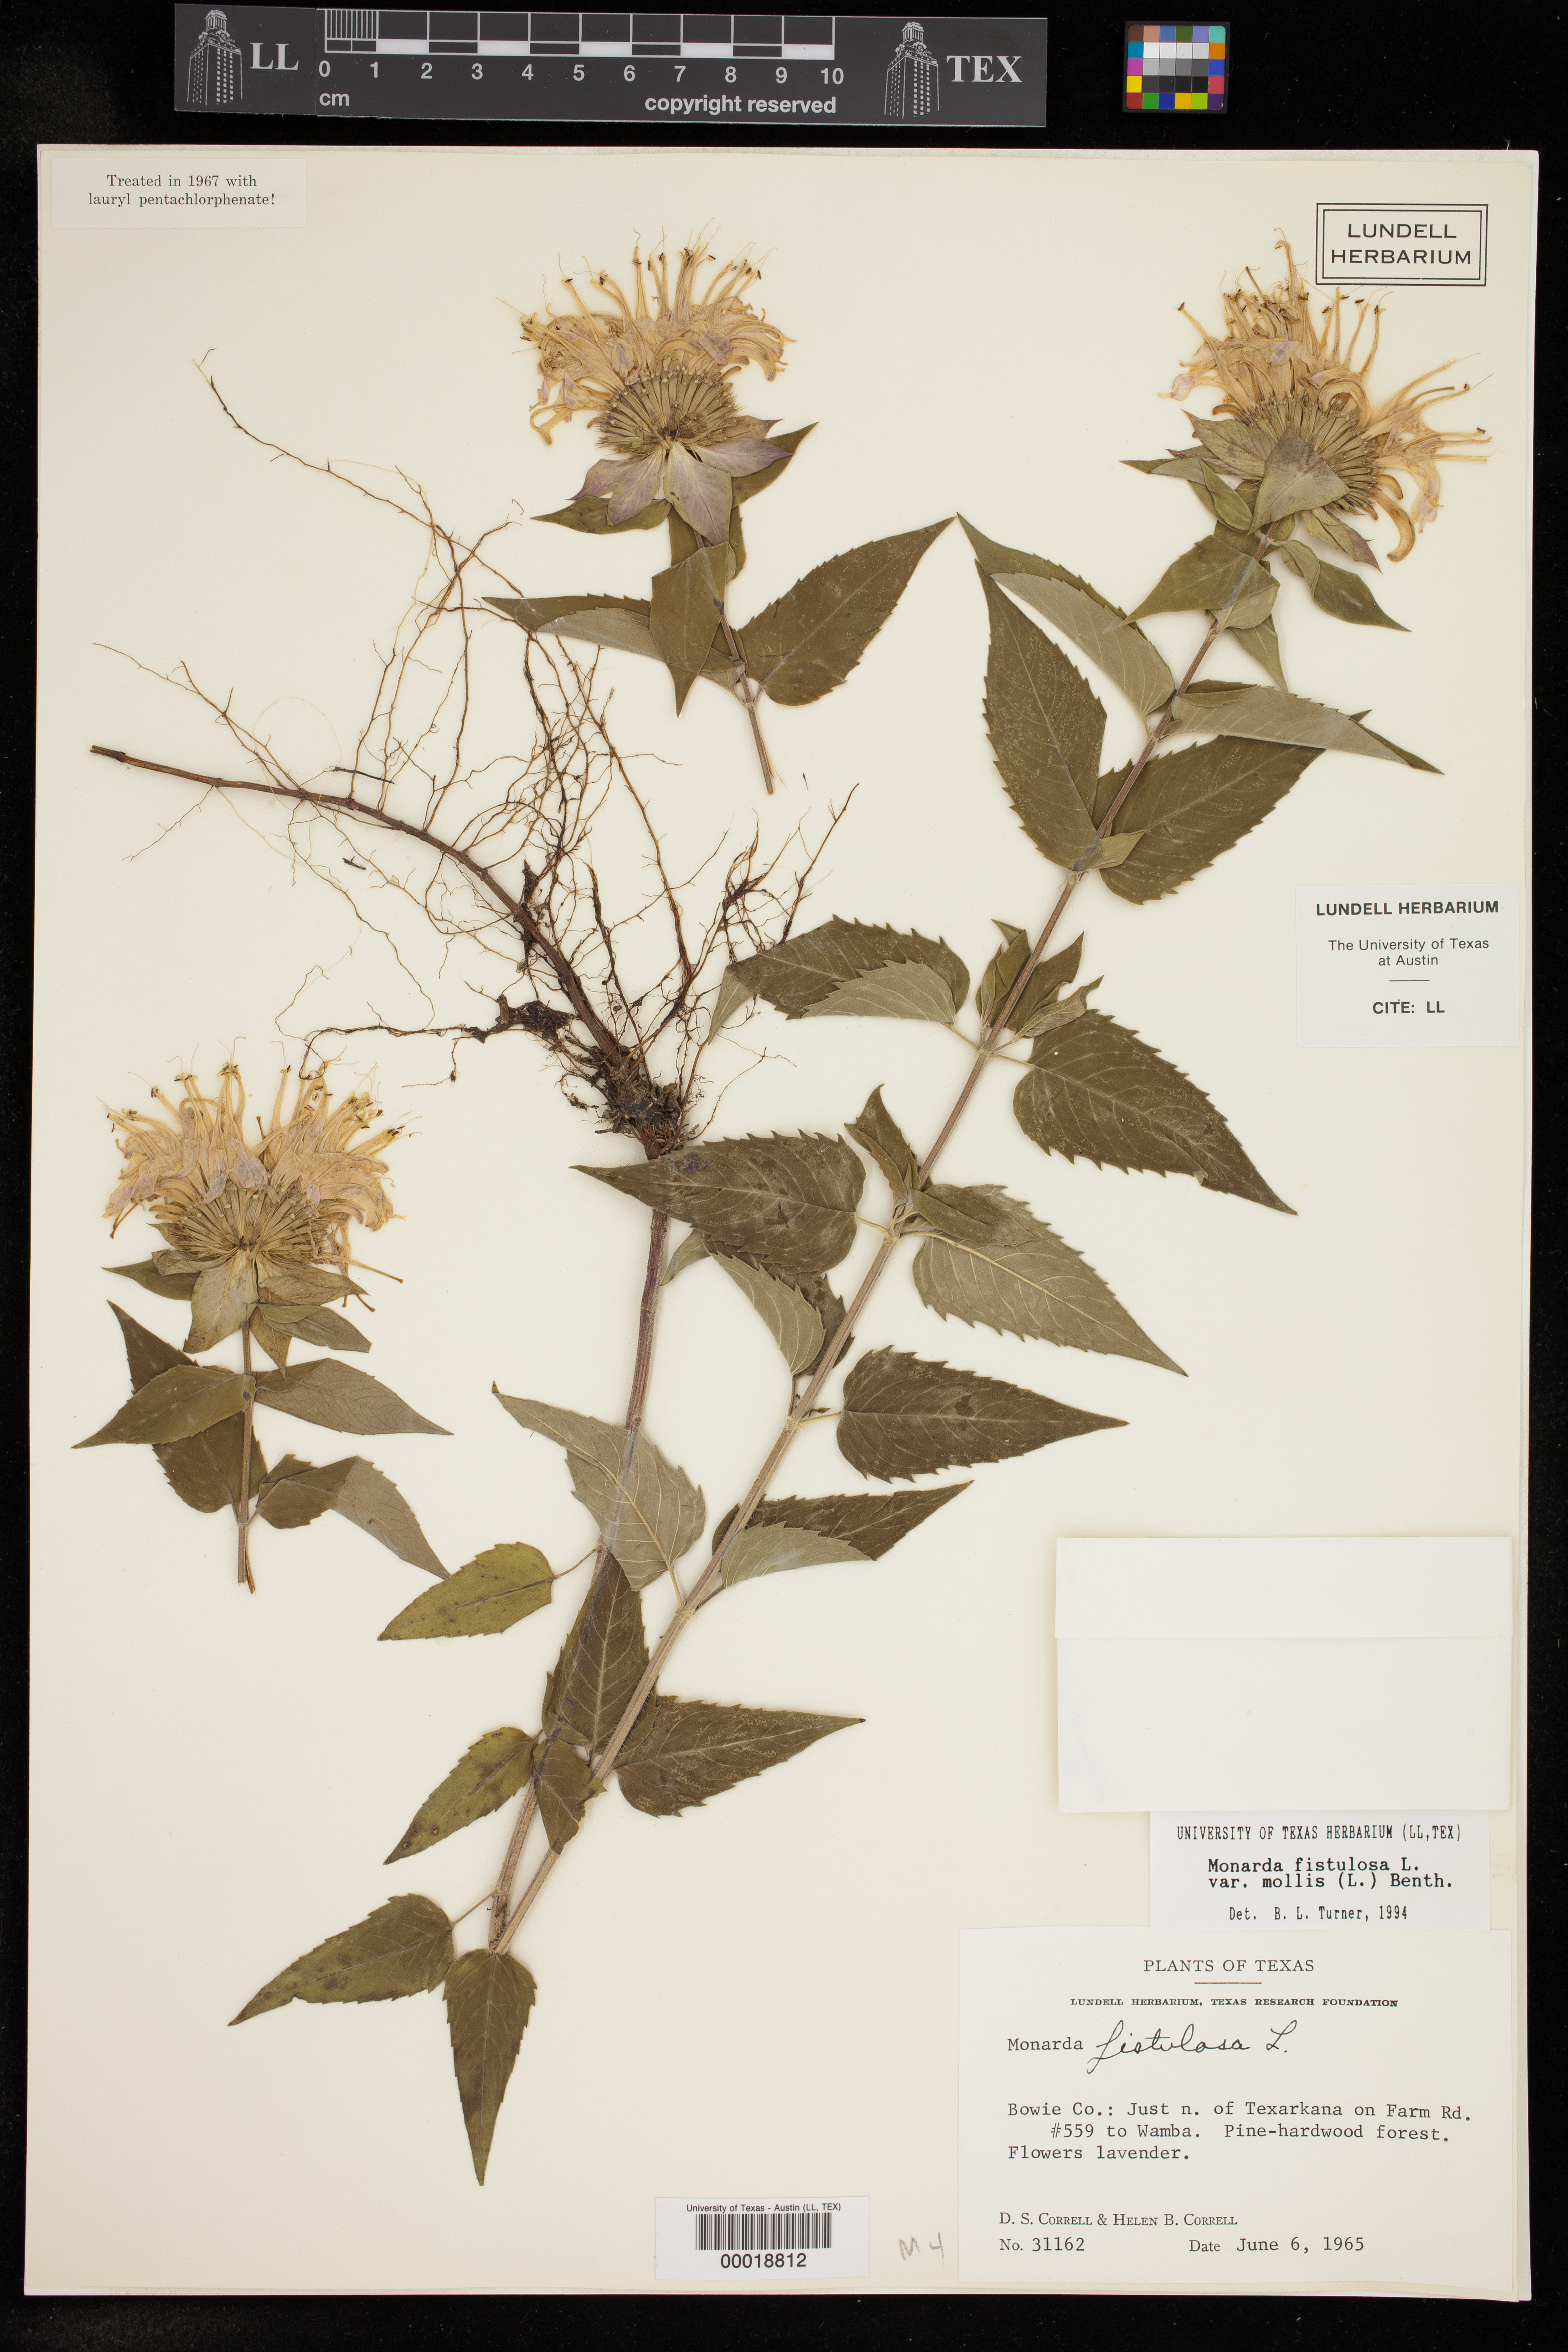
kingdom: Plantae
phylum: Tracheophyta
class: Magnoliopsida
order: Lamiales
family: Lamiaceae
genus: Monarda
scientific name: Monarda fistulosa
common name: Purple beebalm
